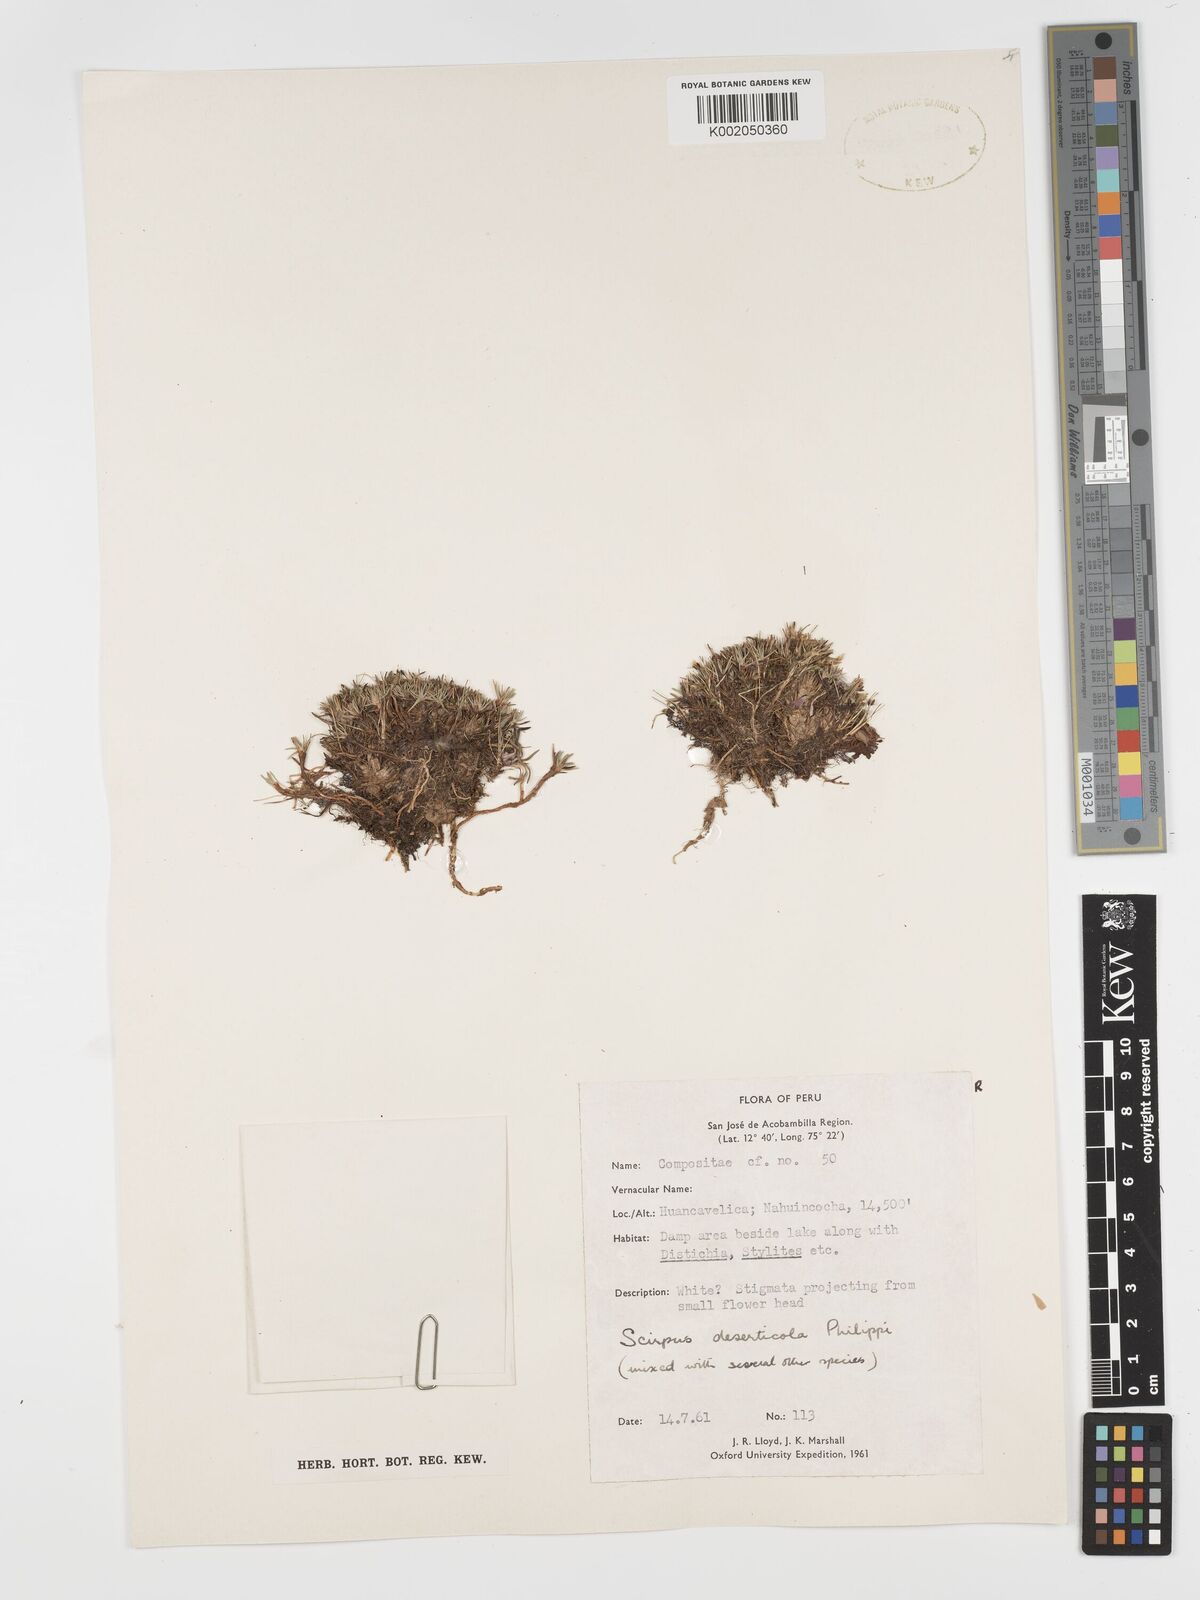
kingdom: Plantae
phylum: Tracheophyta
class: Liliopsida
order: Poales
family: Cyperaceae
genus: Phylloscirpus
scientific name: Phylloscirpus deserticola
